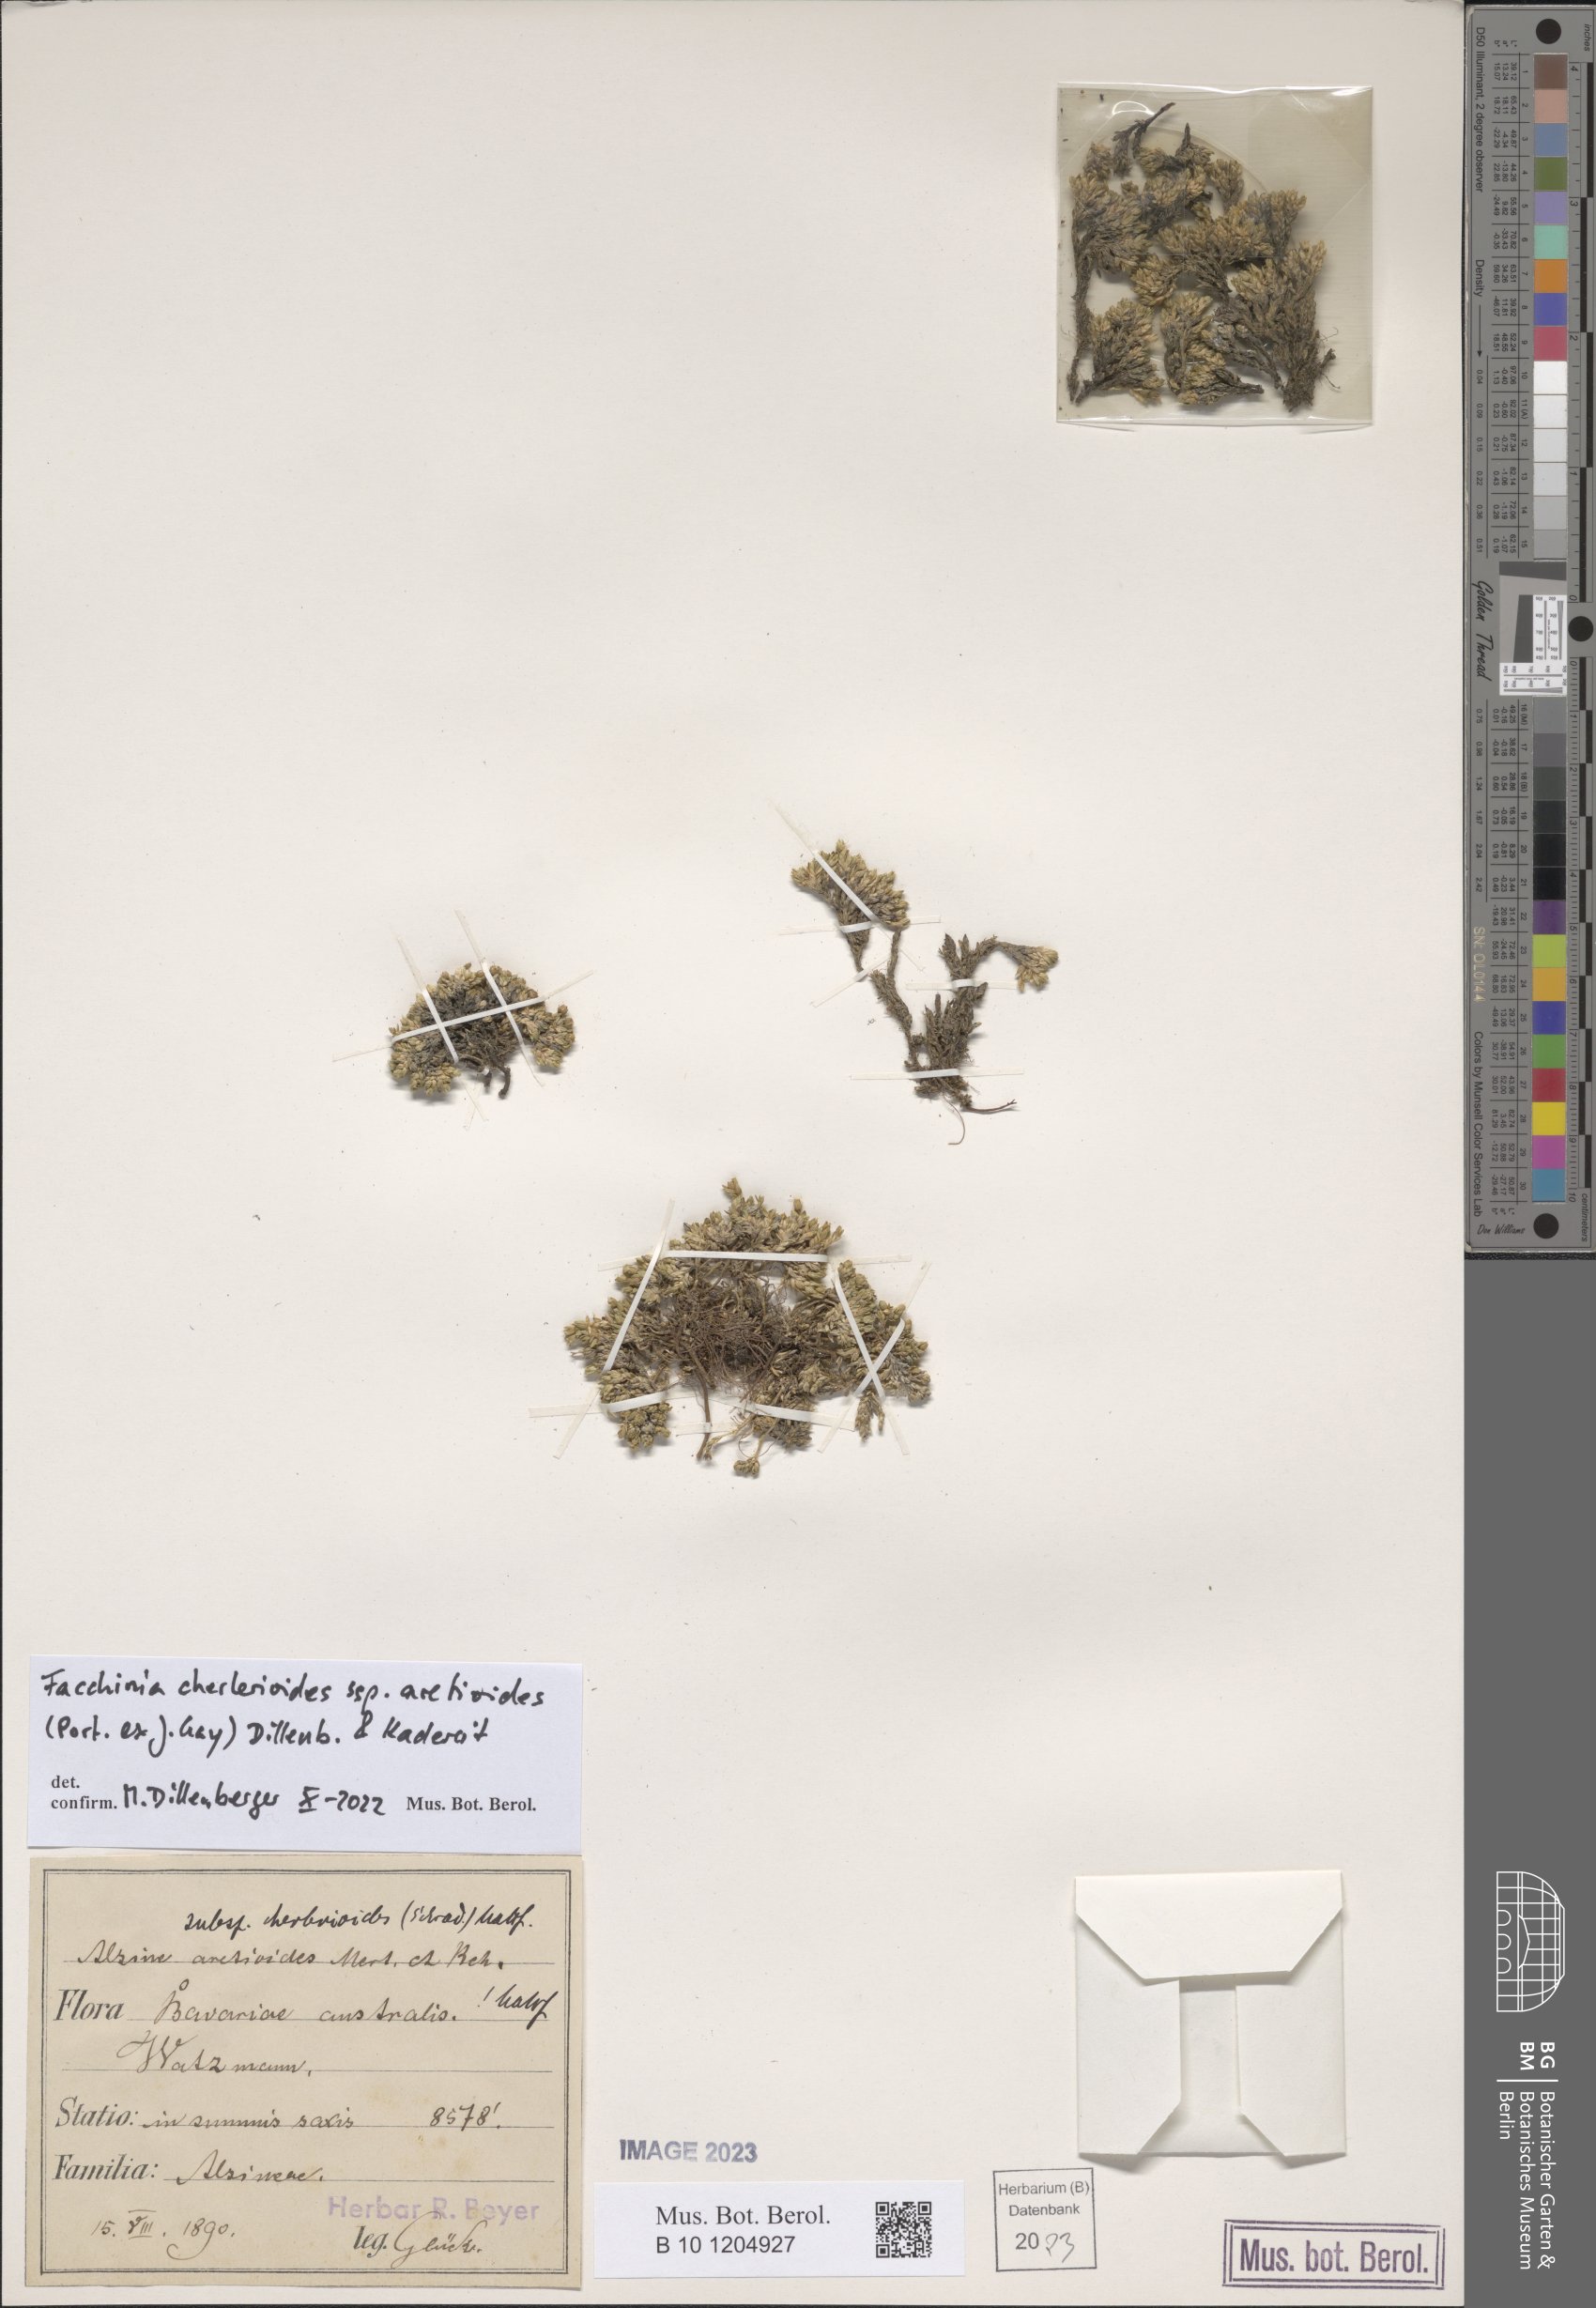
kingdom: Plantae
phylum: Tracheophyta
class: Magnoliopsida
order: Caryophyllales
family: Caryophyllaceae
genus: Facchinia
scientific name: Facchinia cherlerioides
